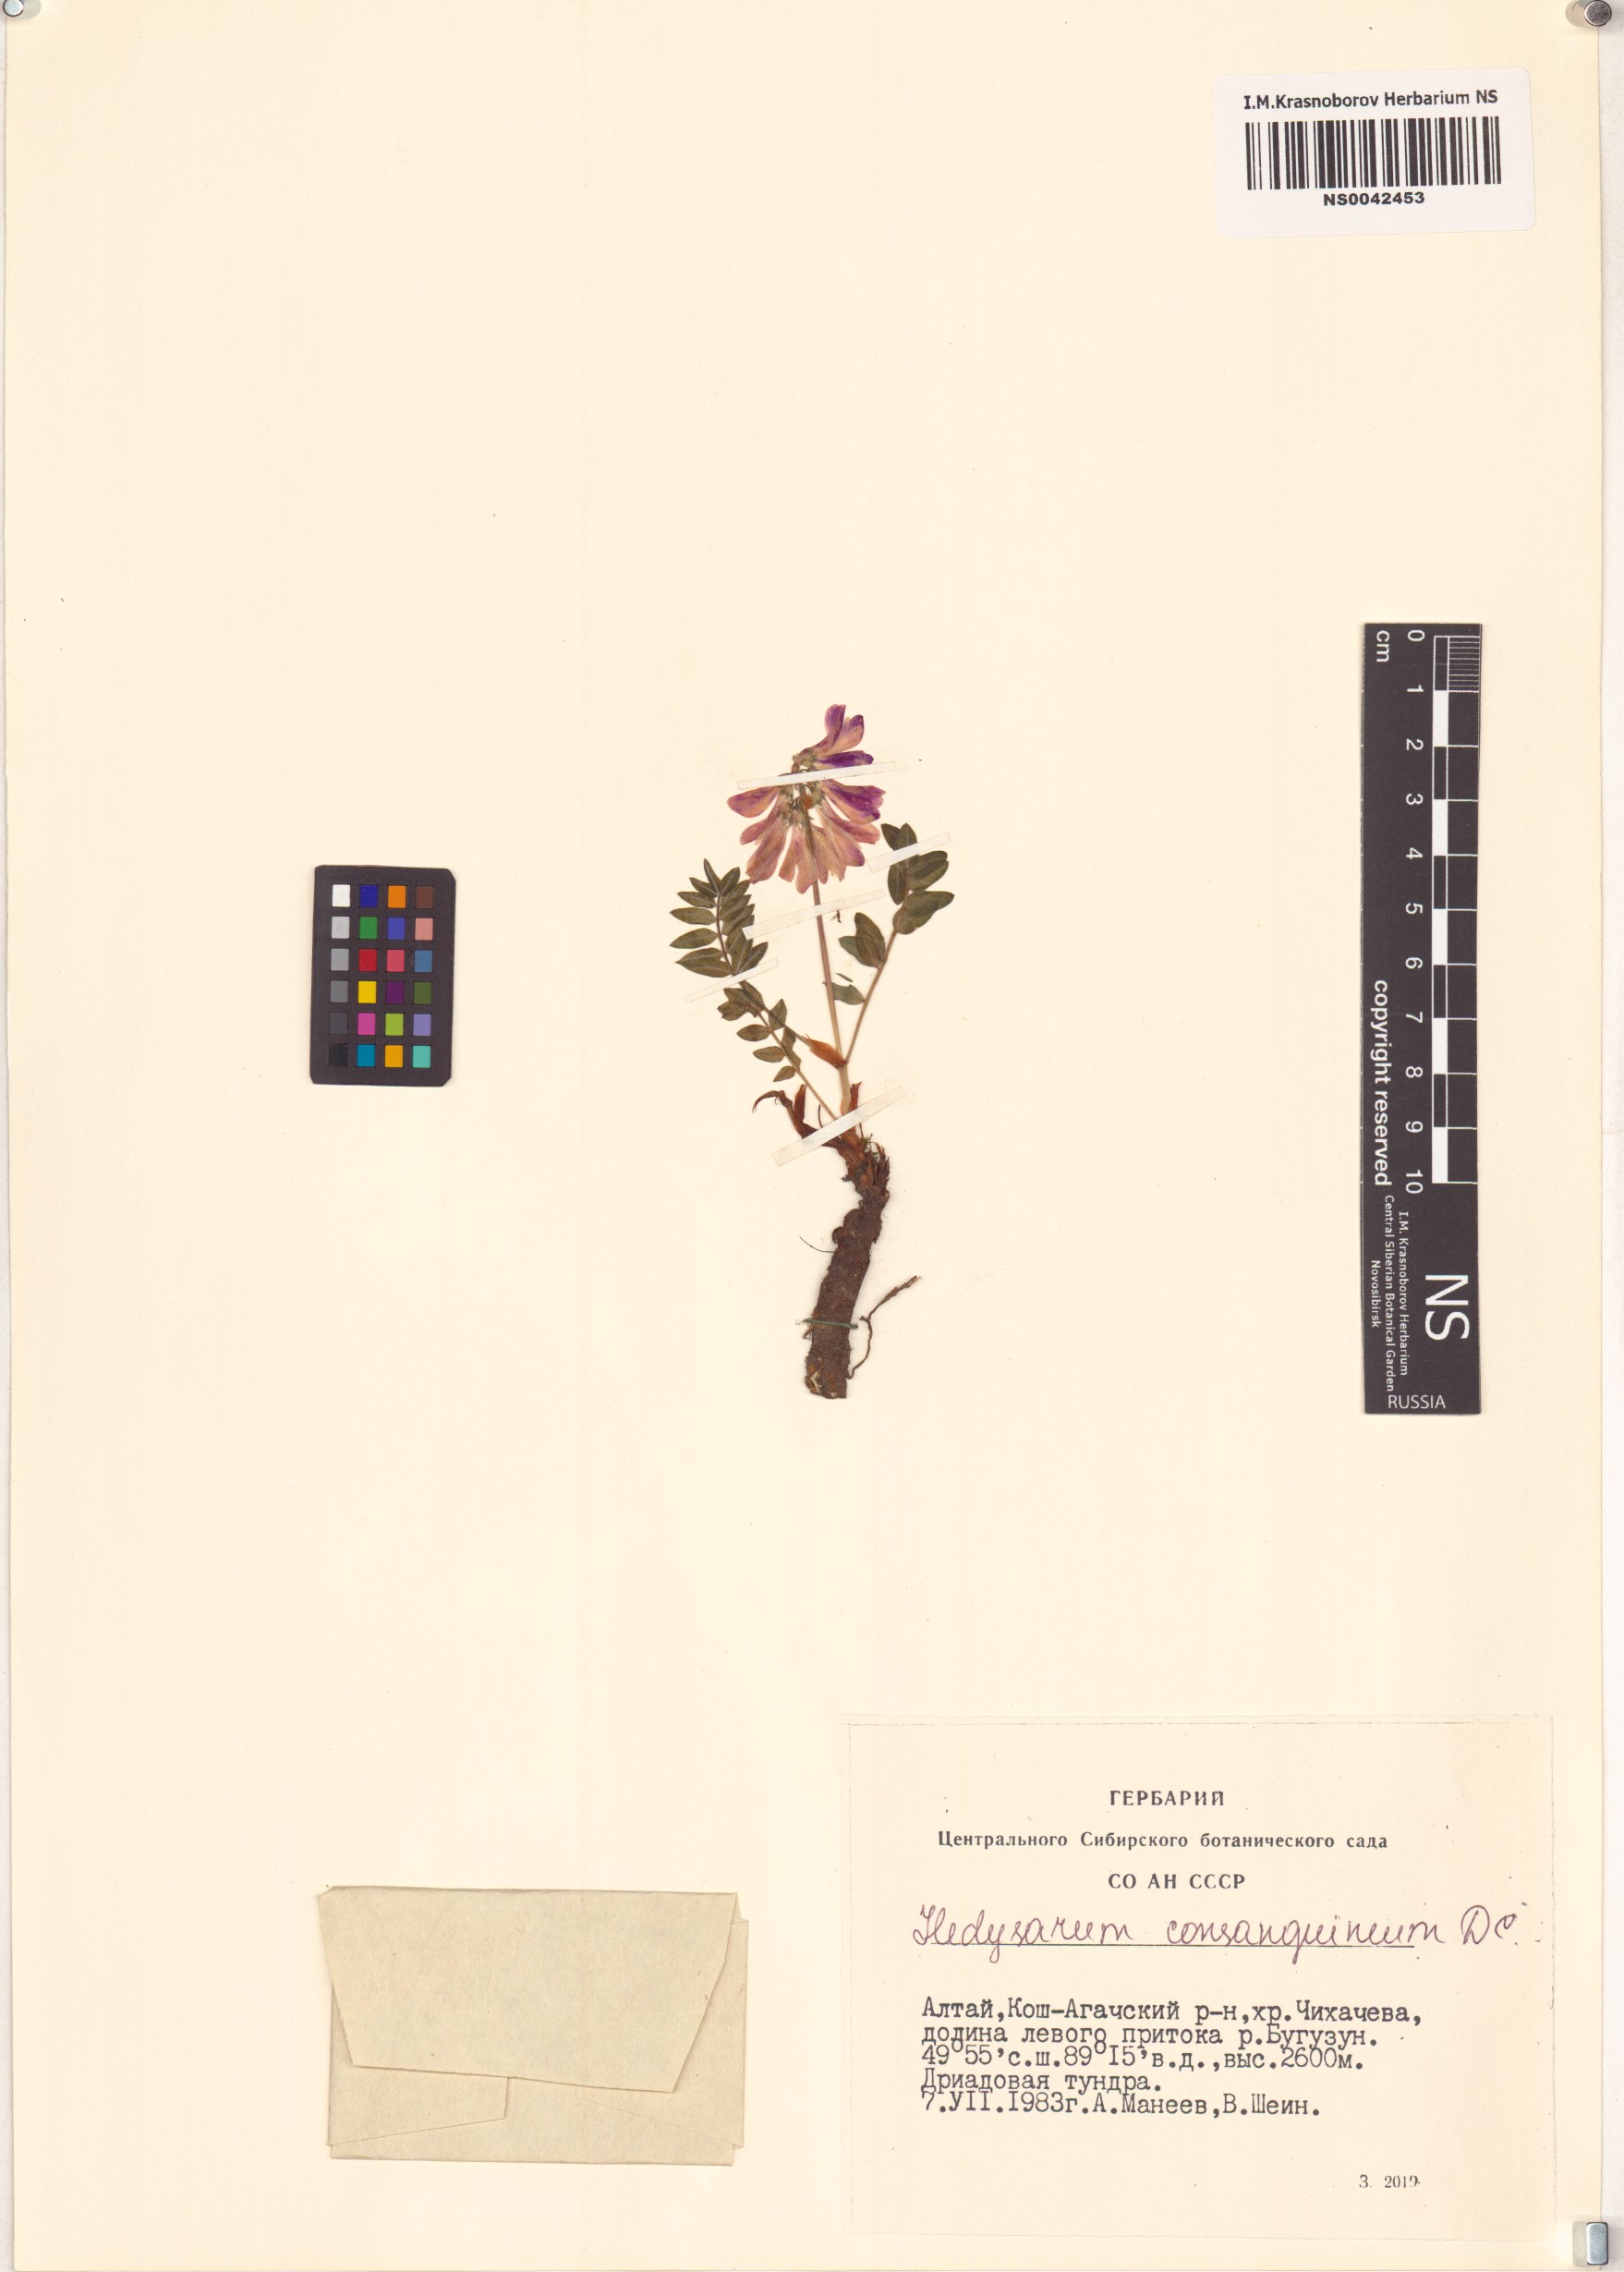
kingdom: Plantae
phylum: Tracheophyta
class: Magnoliopsida
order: Fabales
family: Fabaceae
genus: Hedysarum
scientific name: Hedysarum consanguineum
